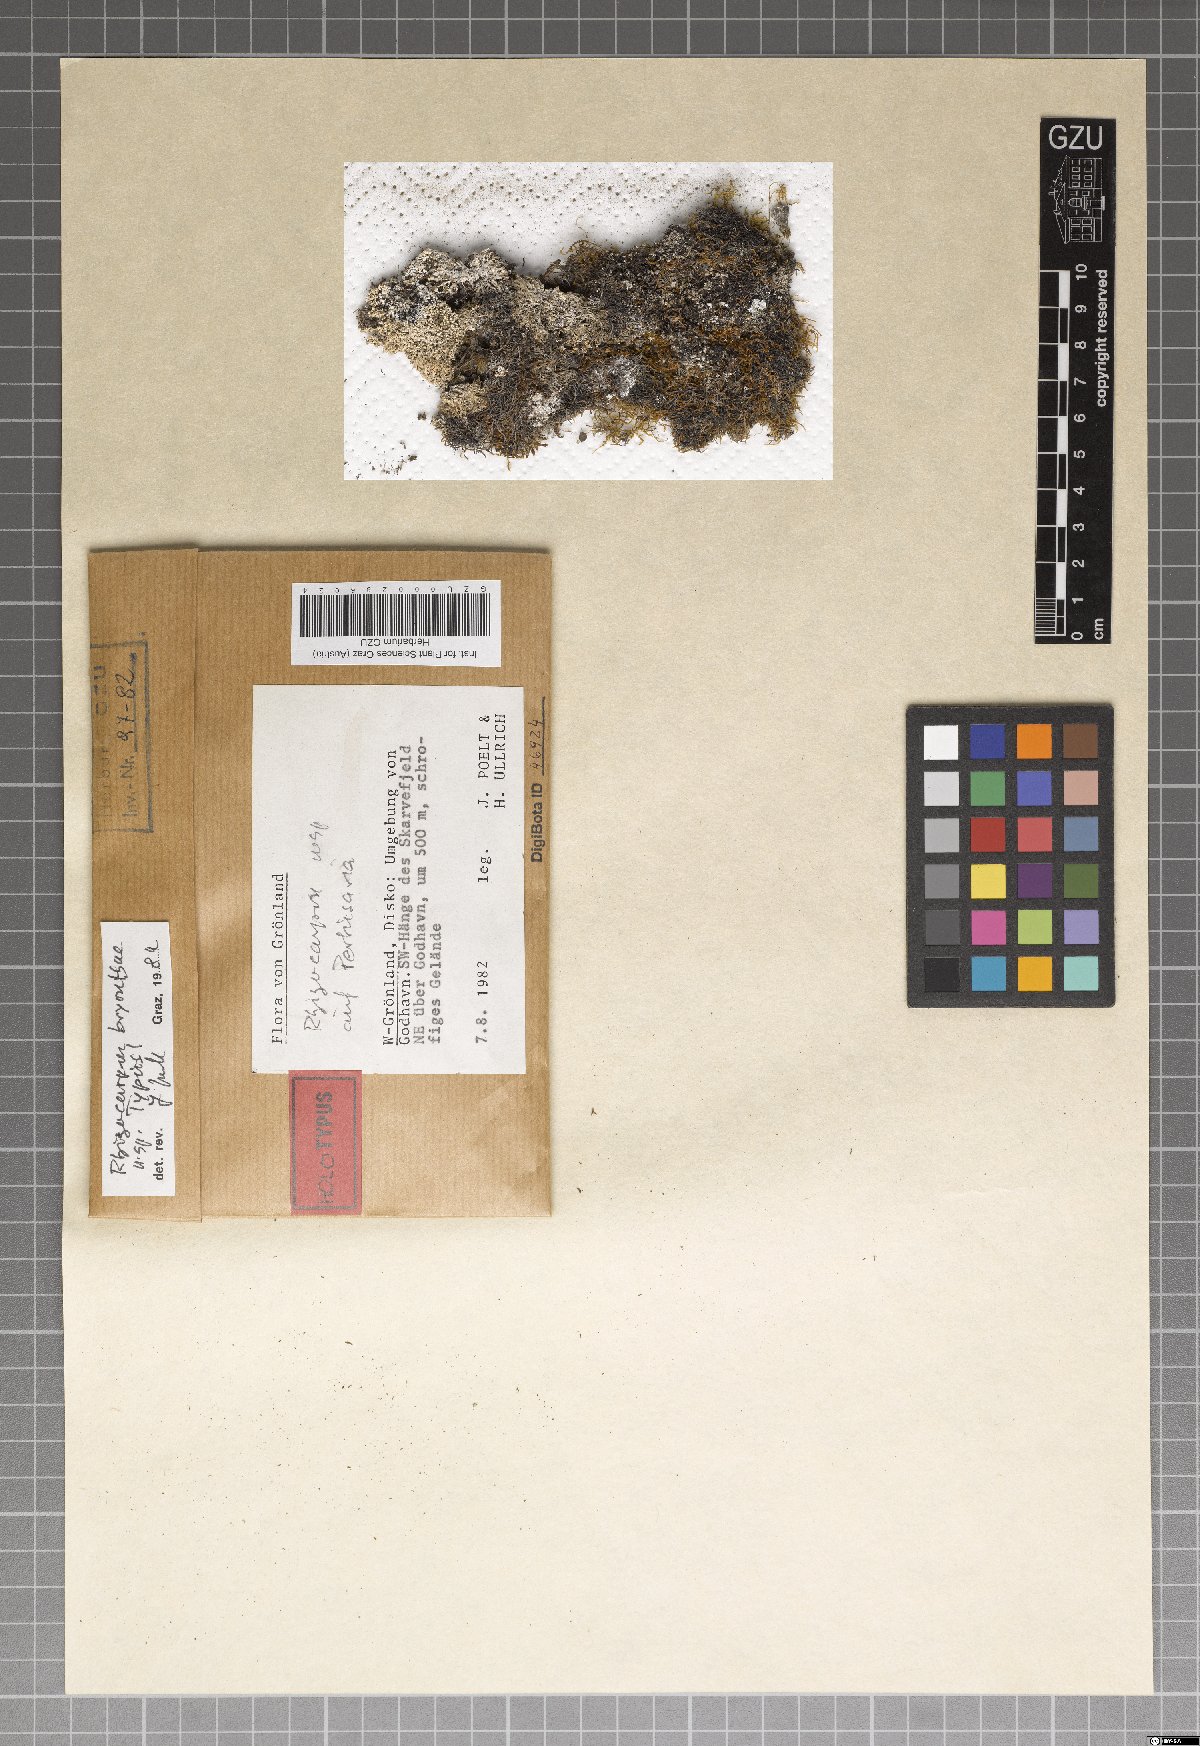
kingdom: Fungi
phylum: Ascomycota
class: Lecanoromycetes
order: Rhizocarpales
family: Rhizocarpaceae
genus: Rhizocarpon
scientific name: Rhizocarpon
